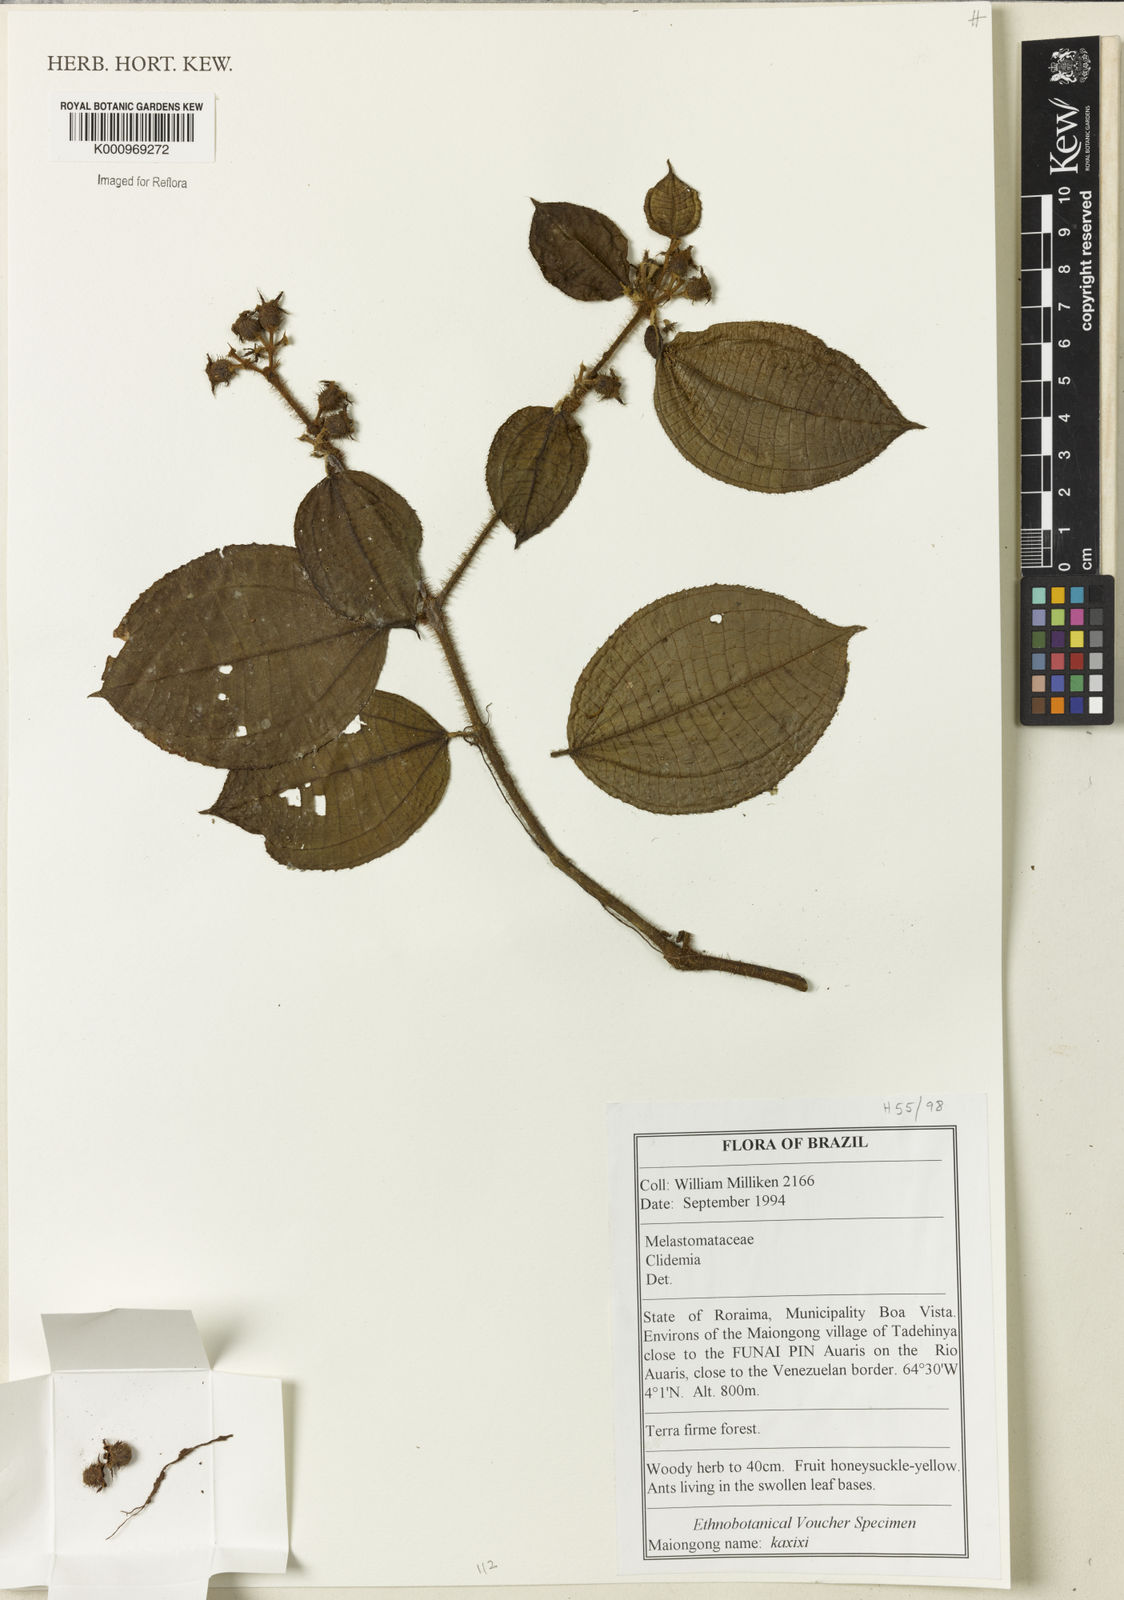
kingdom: Plantae
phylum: Tracheophyta
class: Magnoliopsida
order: Myrtales
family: Melastomataceae
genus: Miconia
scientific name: Miconia
